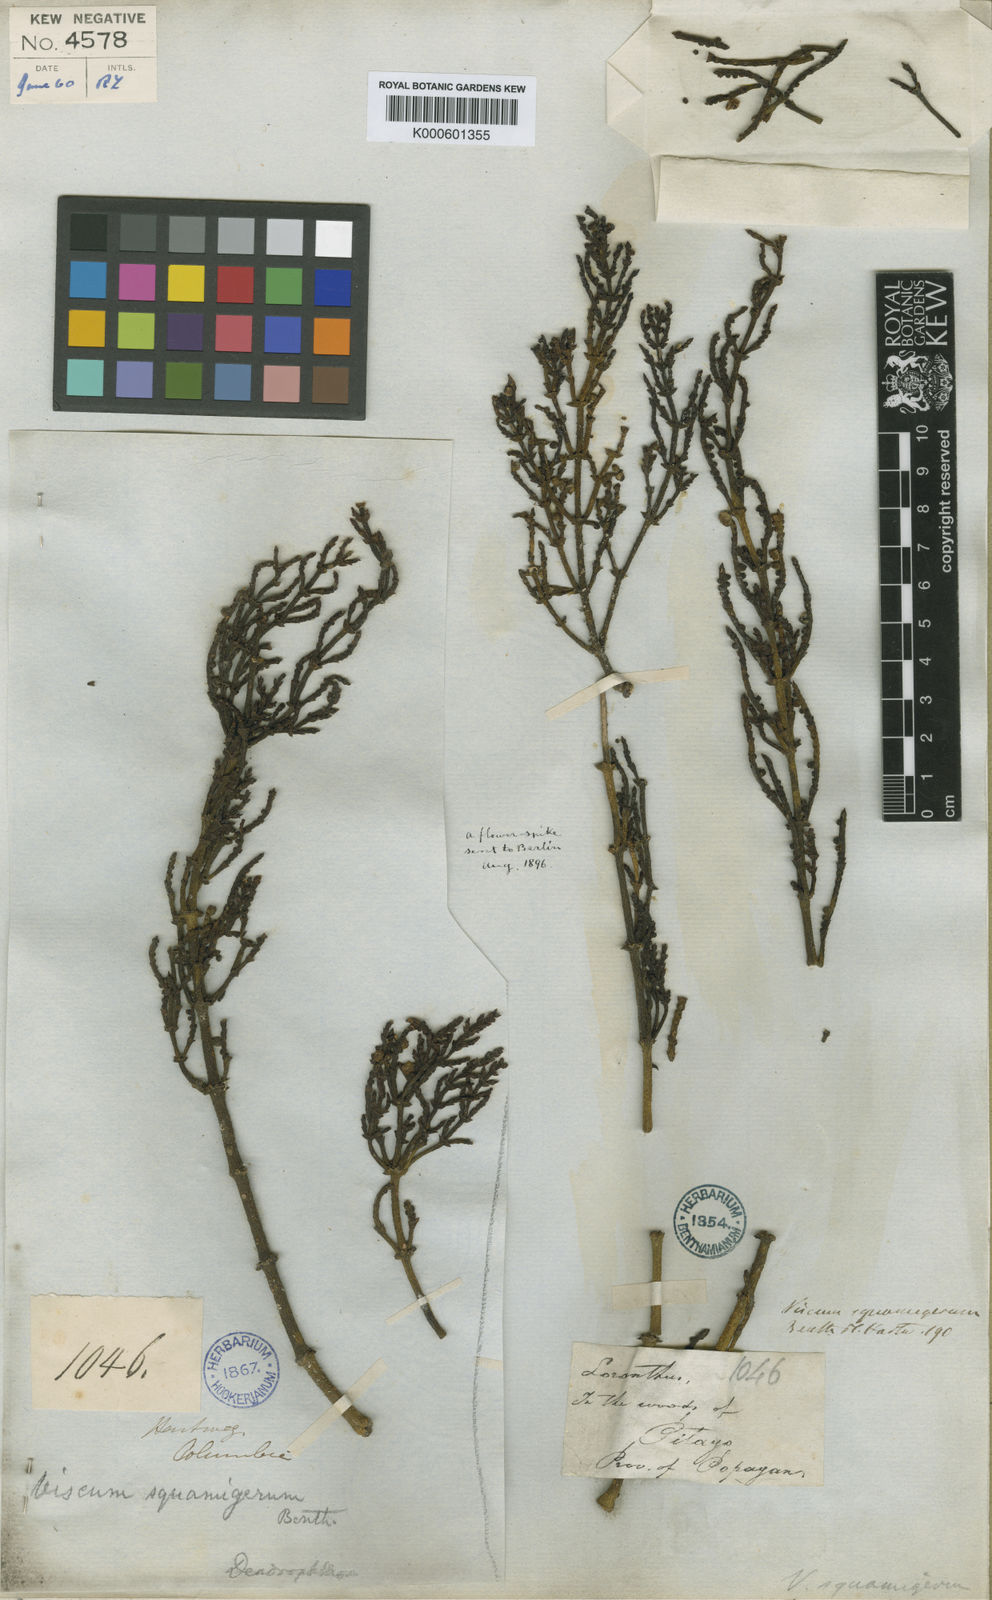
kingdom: Plantae
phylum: Tracheophyta
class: Magnoliopsida
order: Santalales
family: Viscaceae
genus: Dendrophthora
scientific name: Dendrophthora squamigera
